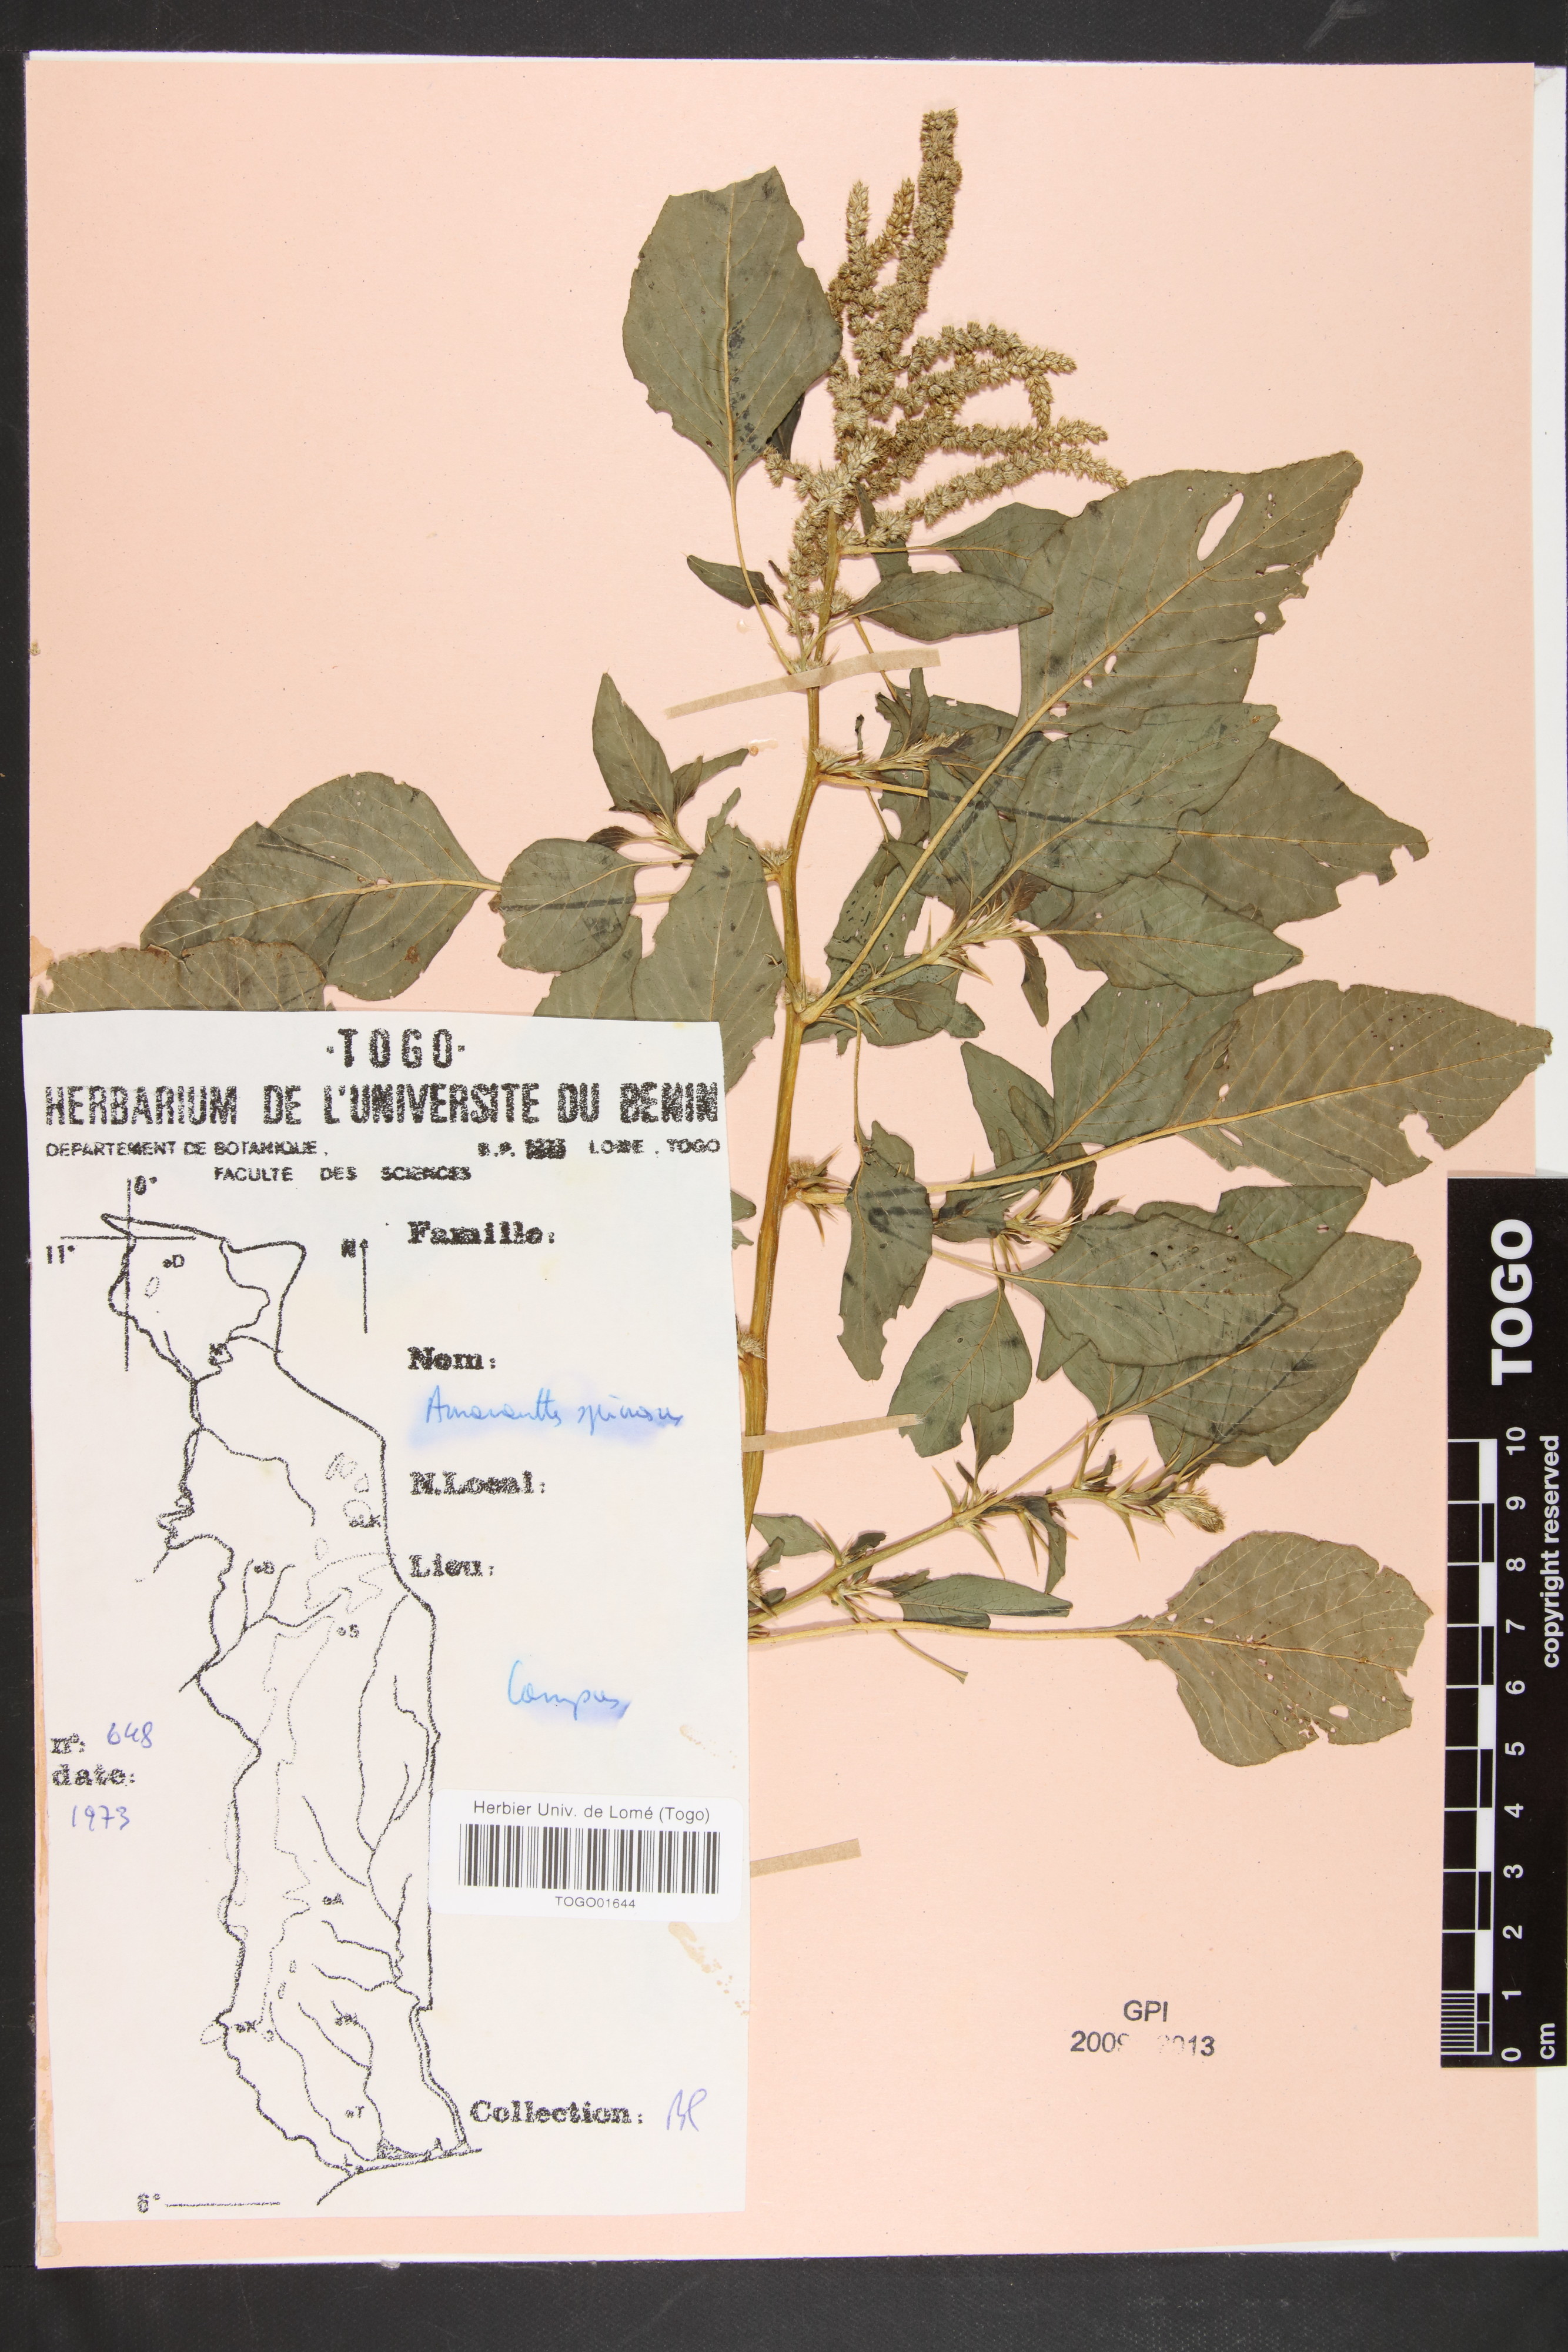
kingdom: Plantae
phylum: Tracheophyta
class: Magnoliopsida
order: Caryophyllales
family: Amaranthaceae
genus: Amaranthus
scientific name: Amaranthus spinosus
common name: Spiny amaranth
